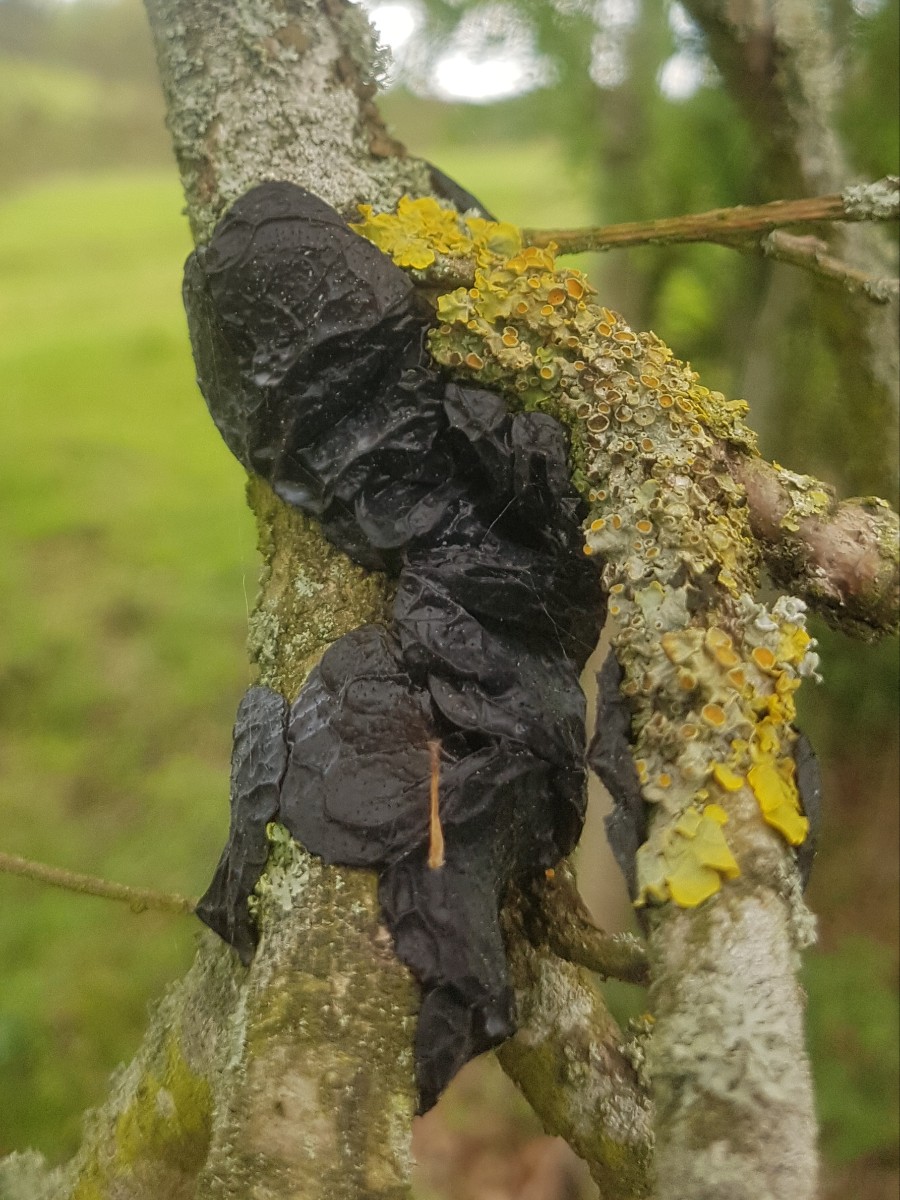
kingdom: Fungi
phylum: Basidiomycota
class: Agaricomycetes
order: Auriculariales
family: Auriculariaceae
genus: Exidia
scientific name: Exidia glandulosa
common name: ege-bævretop
